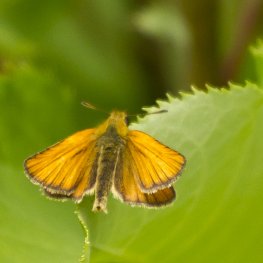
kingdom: Animalia
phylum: Arthropoda
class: Insecta
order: Lepidoptera
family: Hesperiidae
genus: Thymelicus
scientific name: Thymelicus lineola
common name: European Skipper
